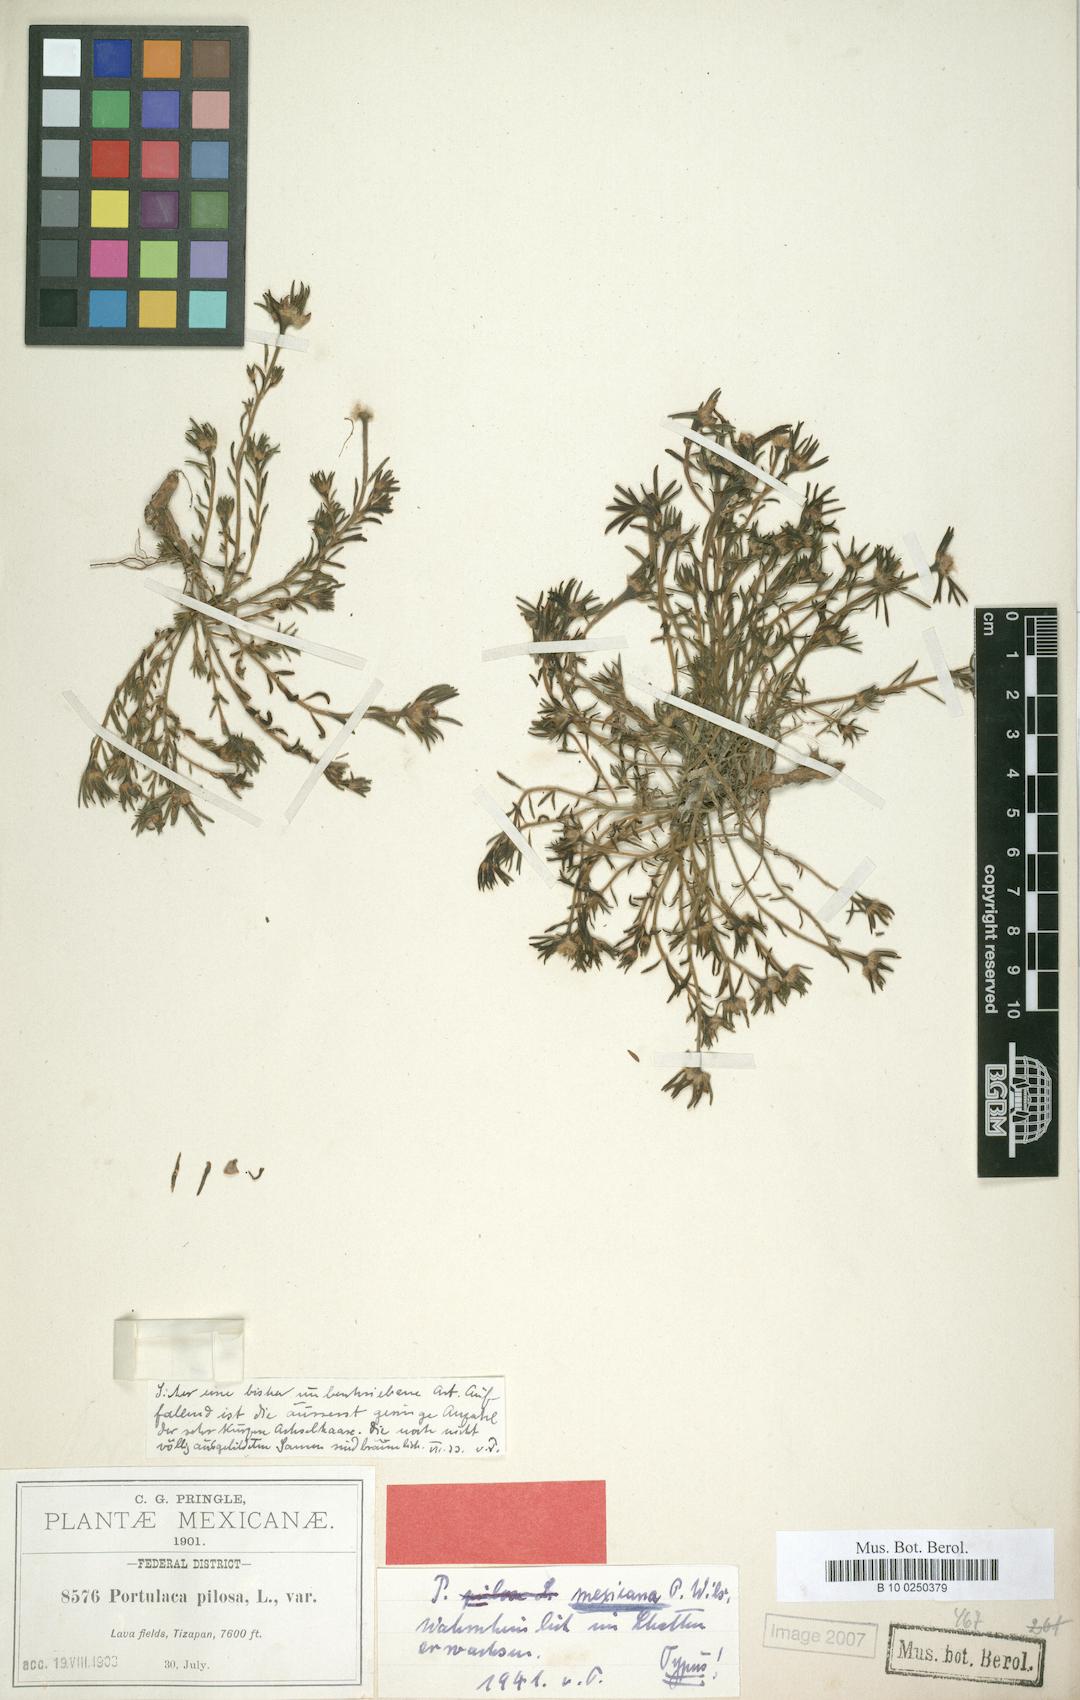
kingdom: Plantae
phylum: Tracheophyta
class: Magnoliopsida
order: Caryophyllales
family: Portulacaceae
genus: Portulaca
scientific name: Portulaca mexicana
